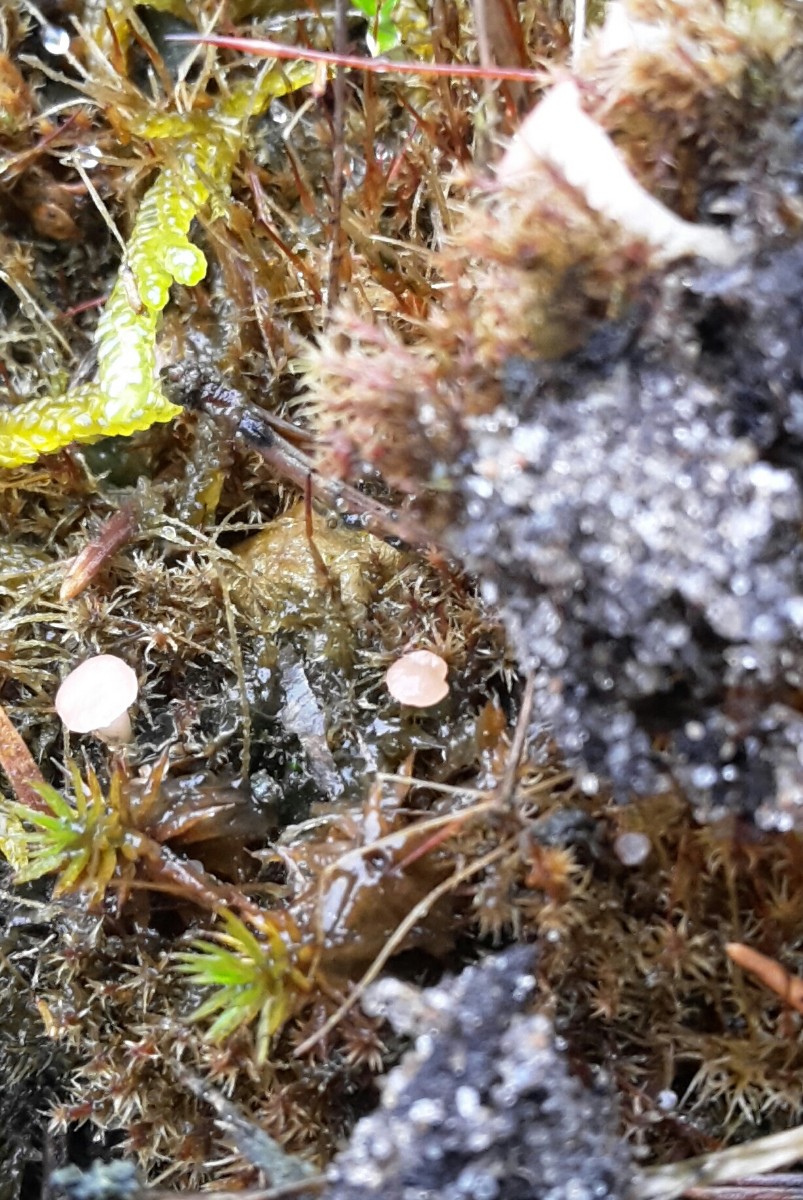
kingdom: Fungi
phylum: Ascomycota
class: Leotiomycetes
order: Helotiales
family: Hyaloscyphaceae
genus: Roseodiscus
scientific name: Roseodiscus formosus
